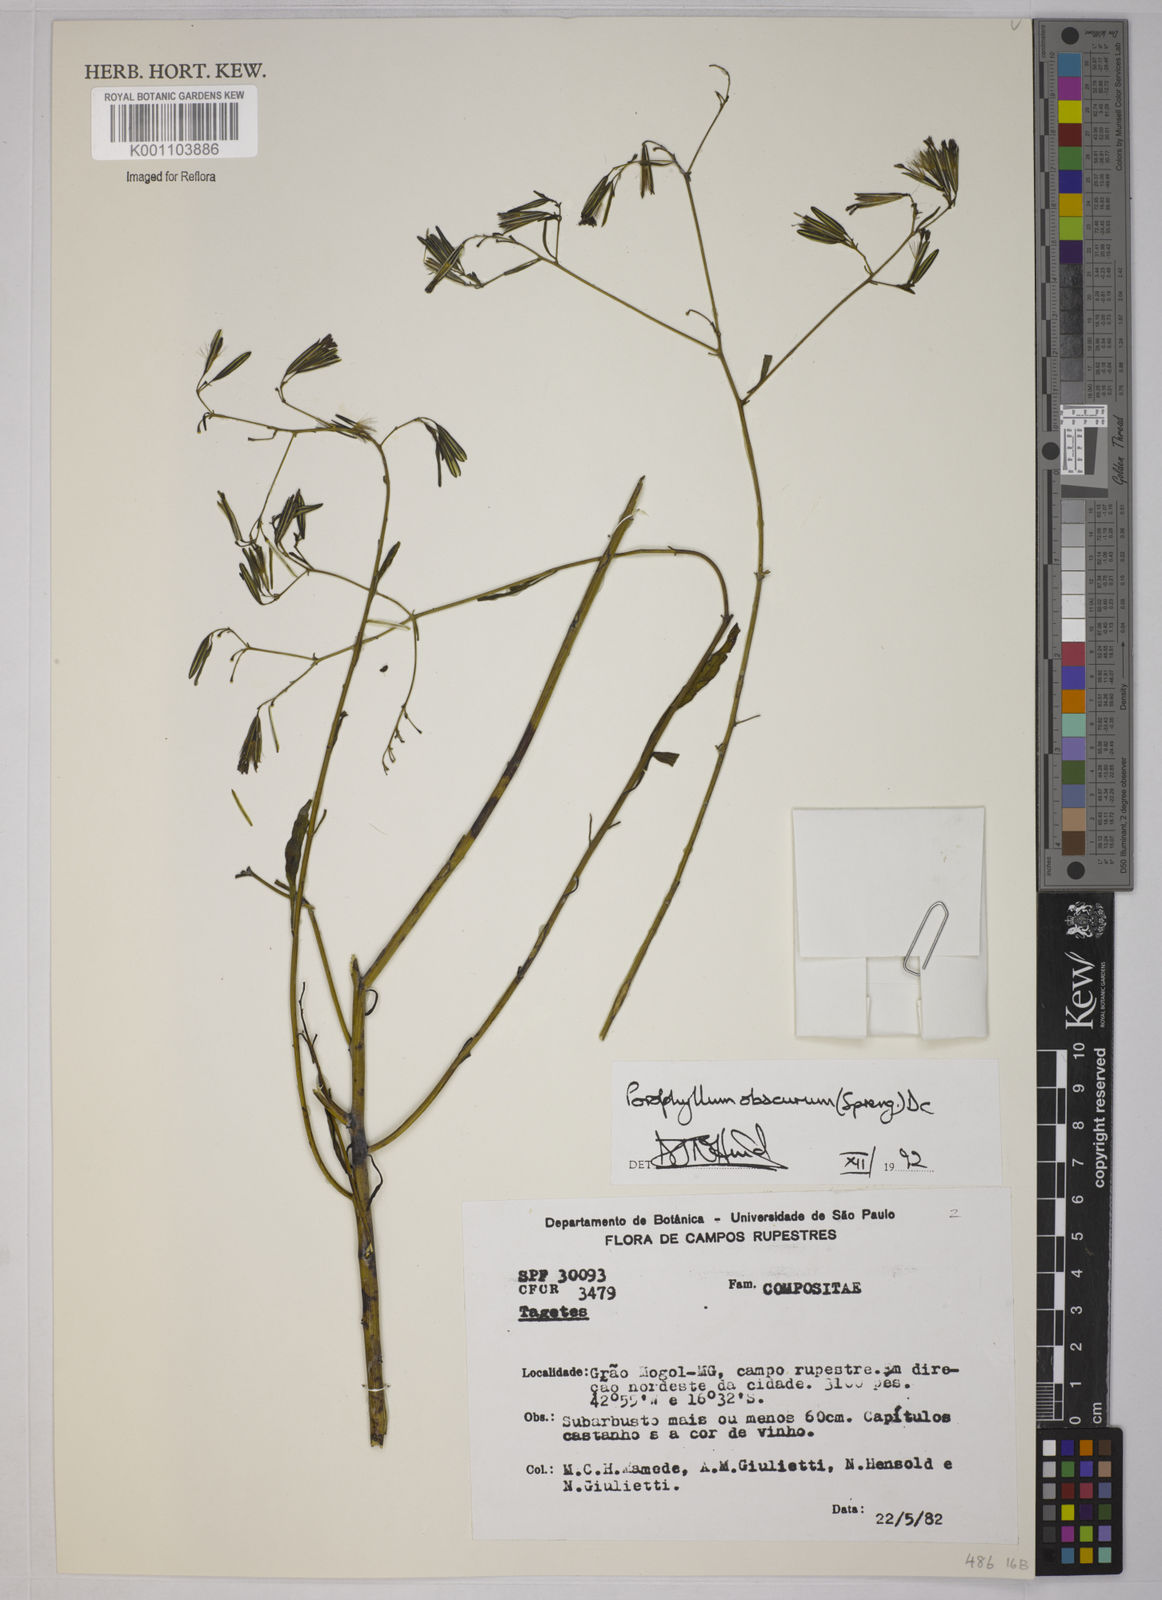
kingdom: Plantae
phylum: Tracheophyta
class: Magnoliopsida
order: Asterales
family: Asteraceae
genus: Porophyllum
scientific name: Porophyllum obscurum
